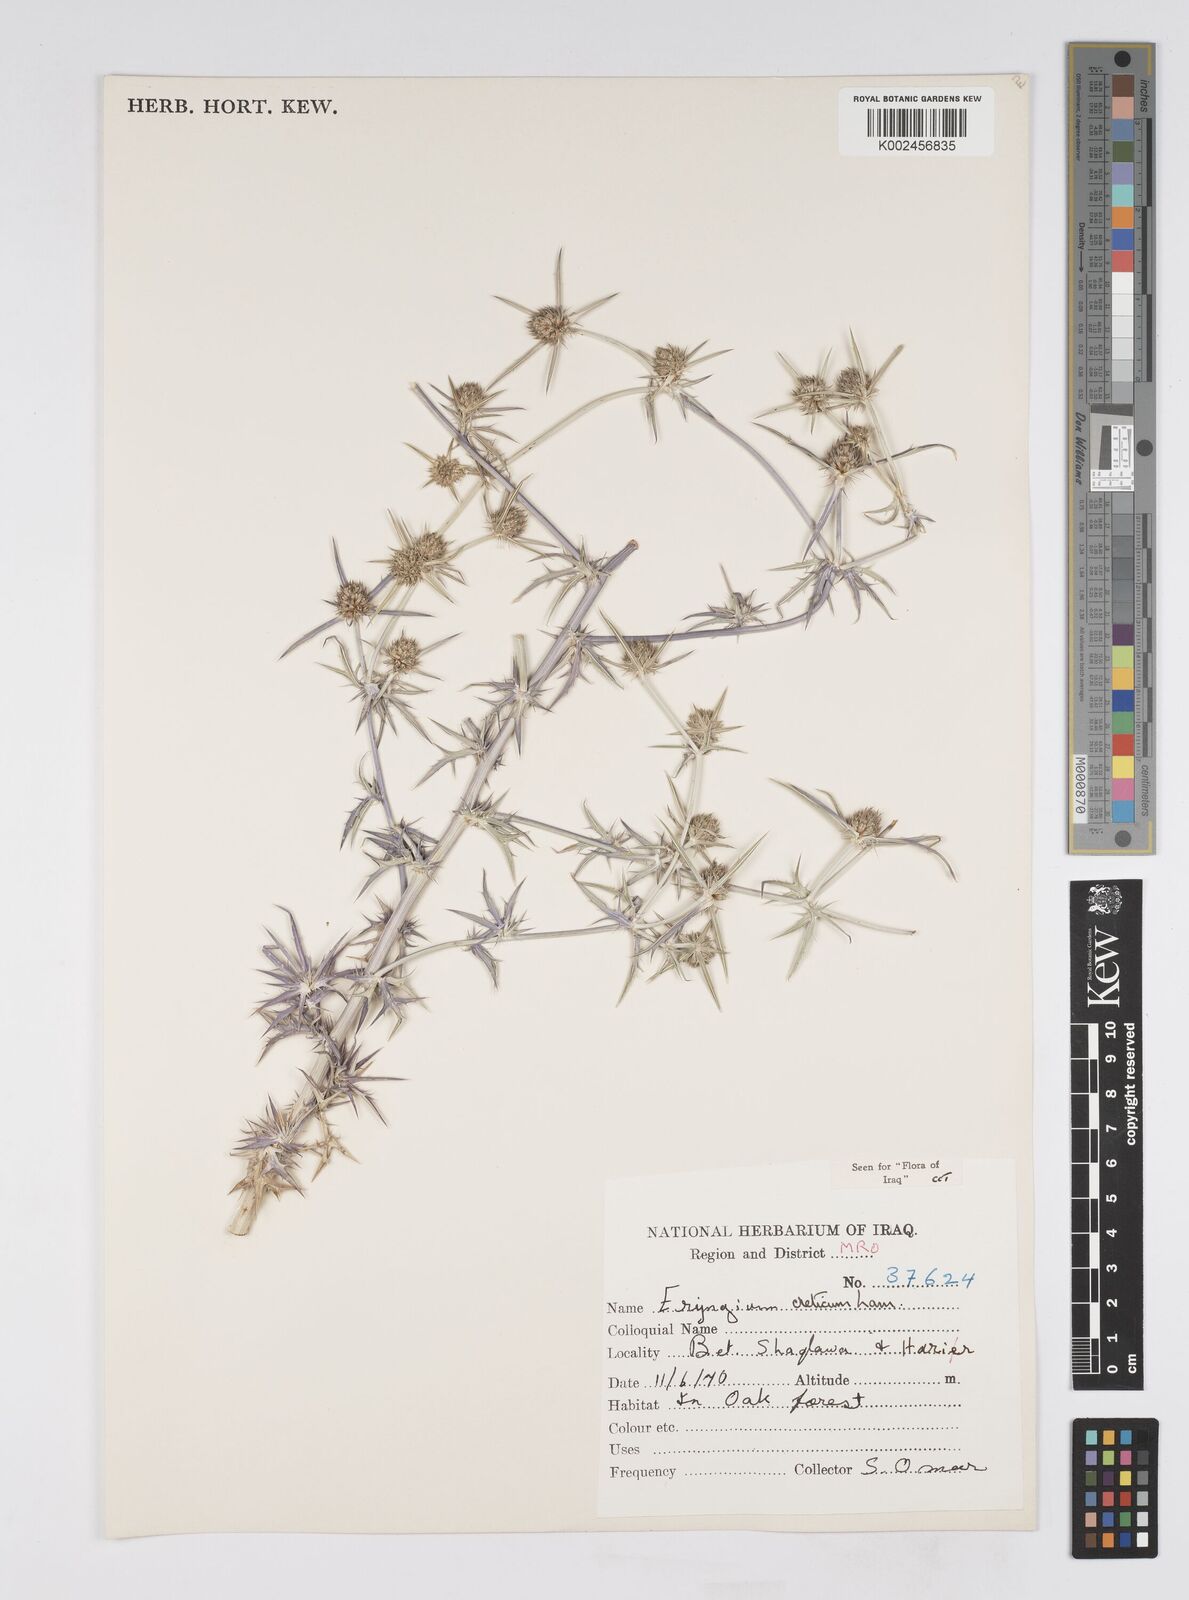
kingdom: Plantae
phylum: Tracheophyta
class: Magnoliopsida
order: Apiales
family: Apiaceae
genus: Eryngium
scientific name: Eryngium creticum
